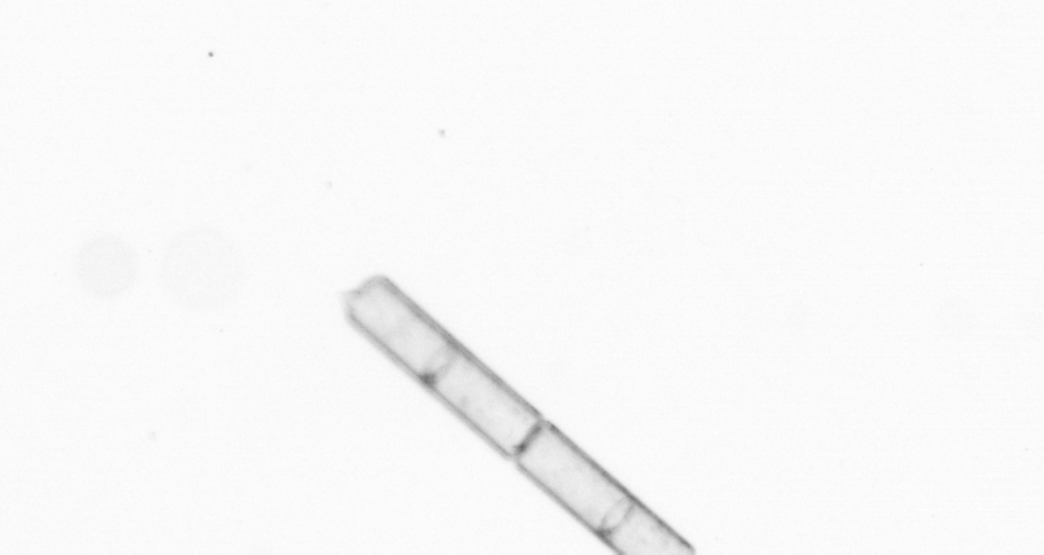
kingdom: Chromista
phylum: Ochrophyta
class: Bacillariophyceae
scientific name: Bacillariophyceae
